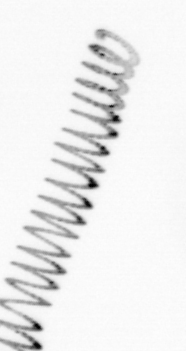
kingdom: Chromista
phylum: Ochrophyta
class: Bacillariophyceae
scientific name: Bacillariophyceae
